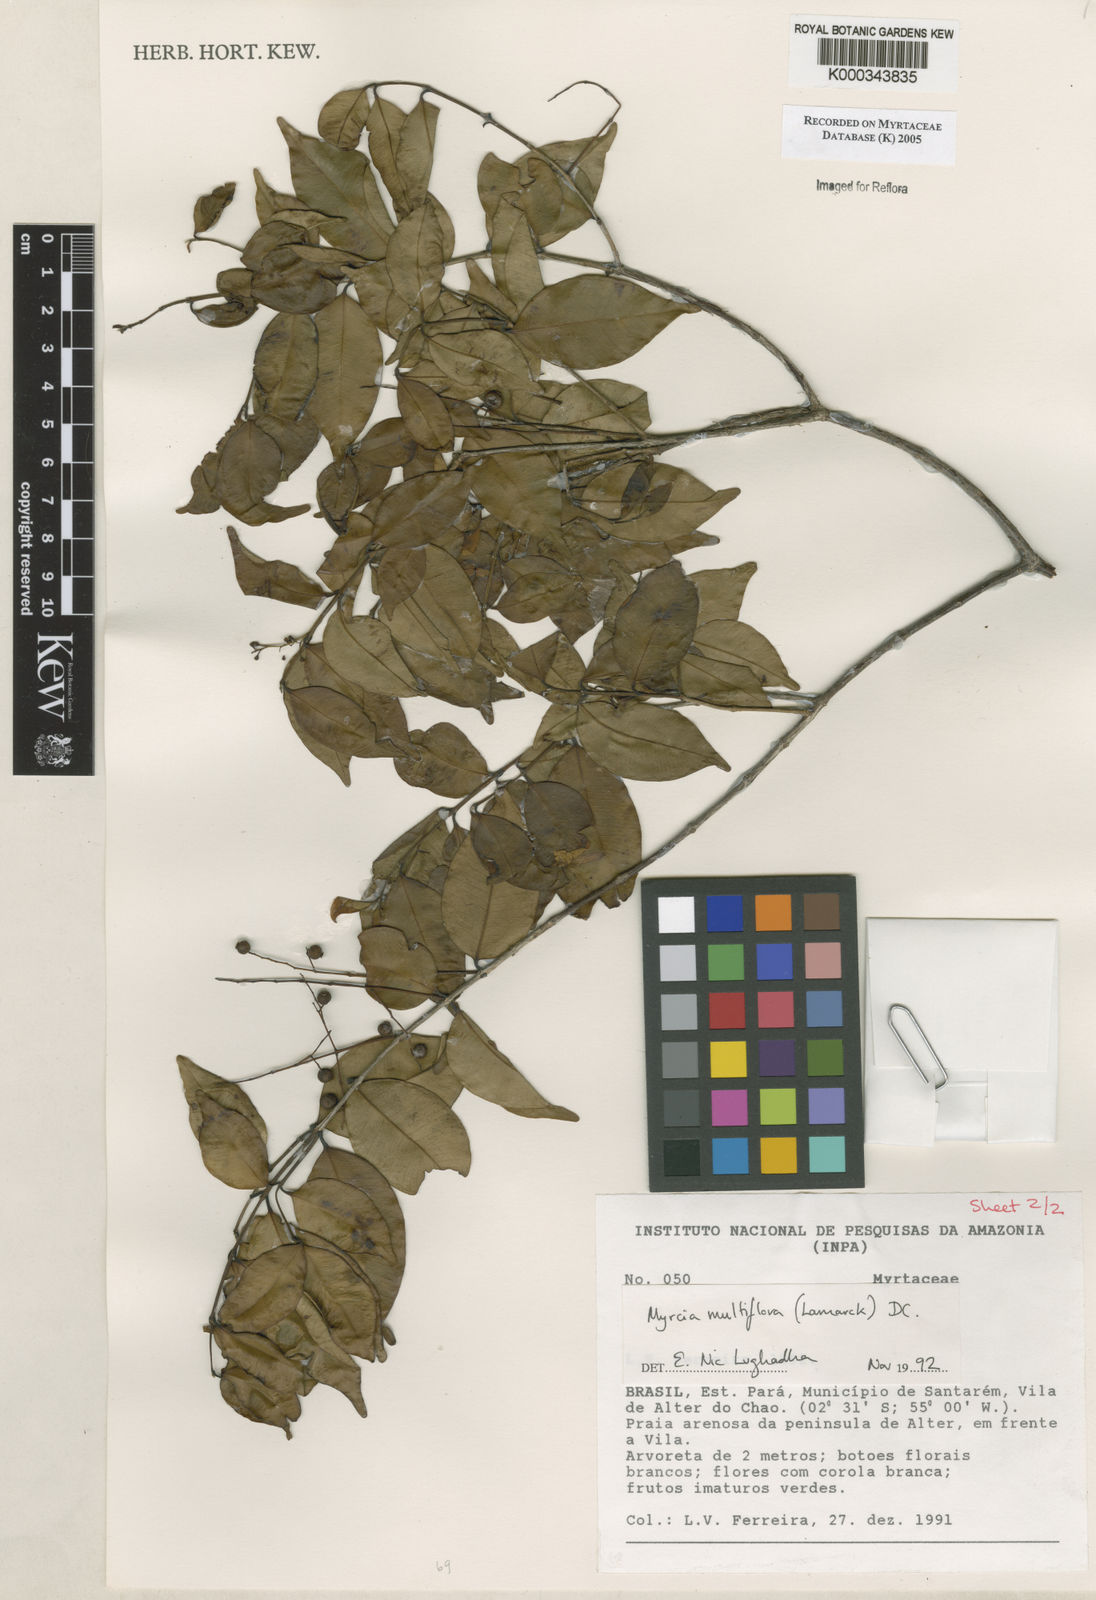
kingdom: Plantae
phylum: Tracheophyta
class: Magnoliopsida
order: Myrtales
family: Myrtaceae
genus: Myrcia
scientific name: Myrcia multiflora
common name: Pedra hume
